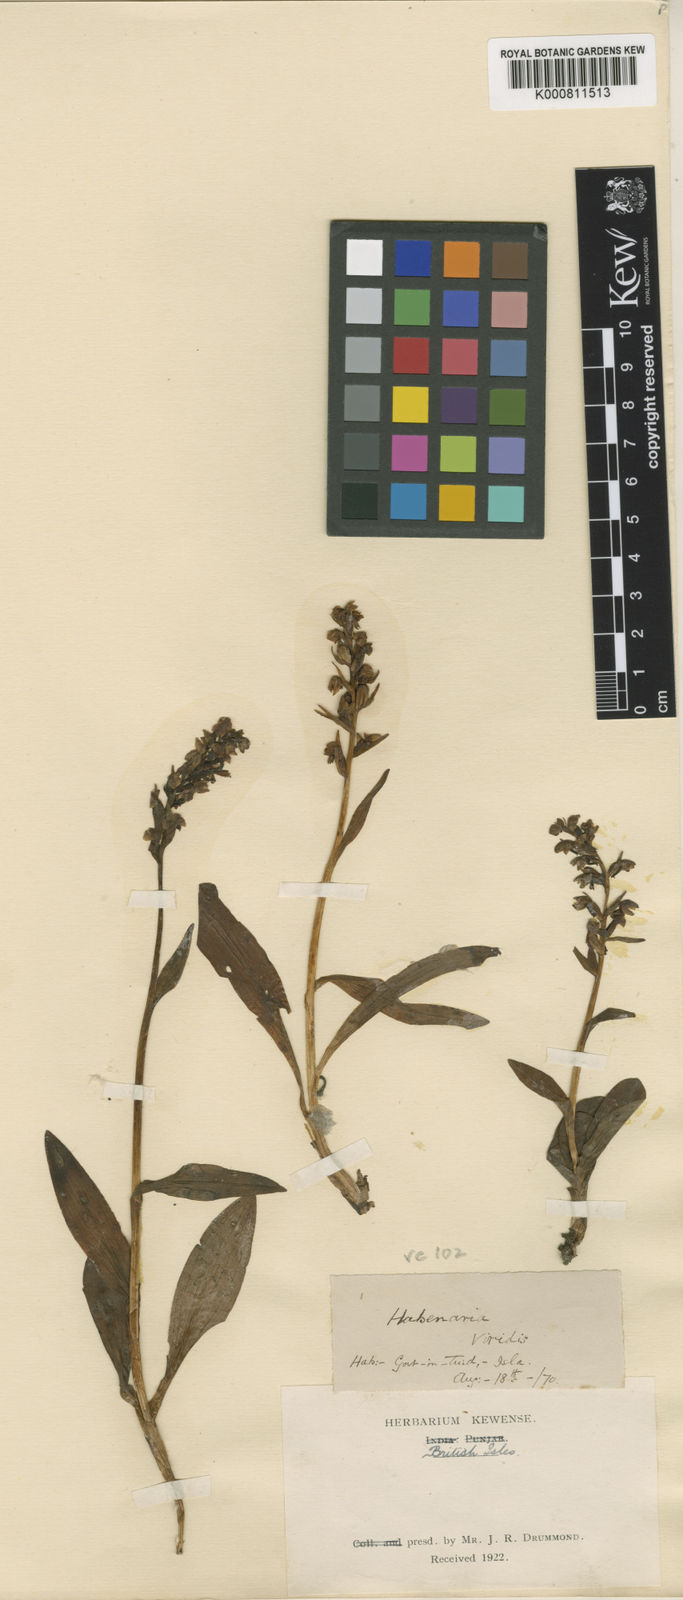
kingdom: Plantae
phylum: Tracheophyta
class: Liliopsida
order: Asparagales
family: Orchidaceae
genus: Dactylorhiza
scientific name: Dactylorhiza viridis
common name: Longbract frog orchid
